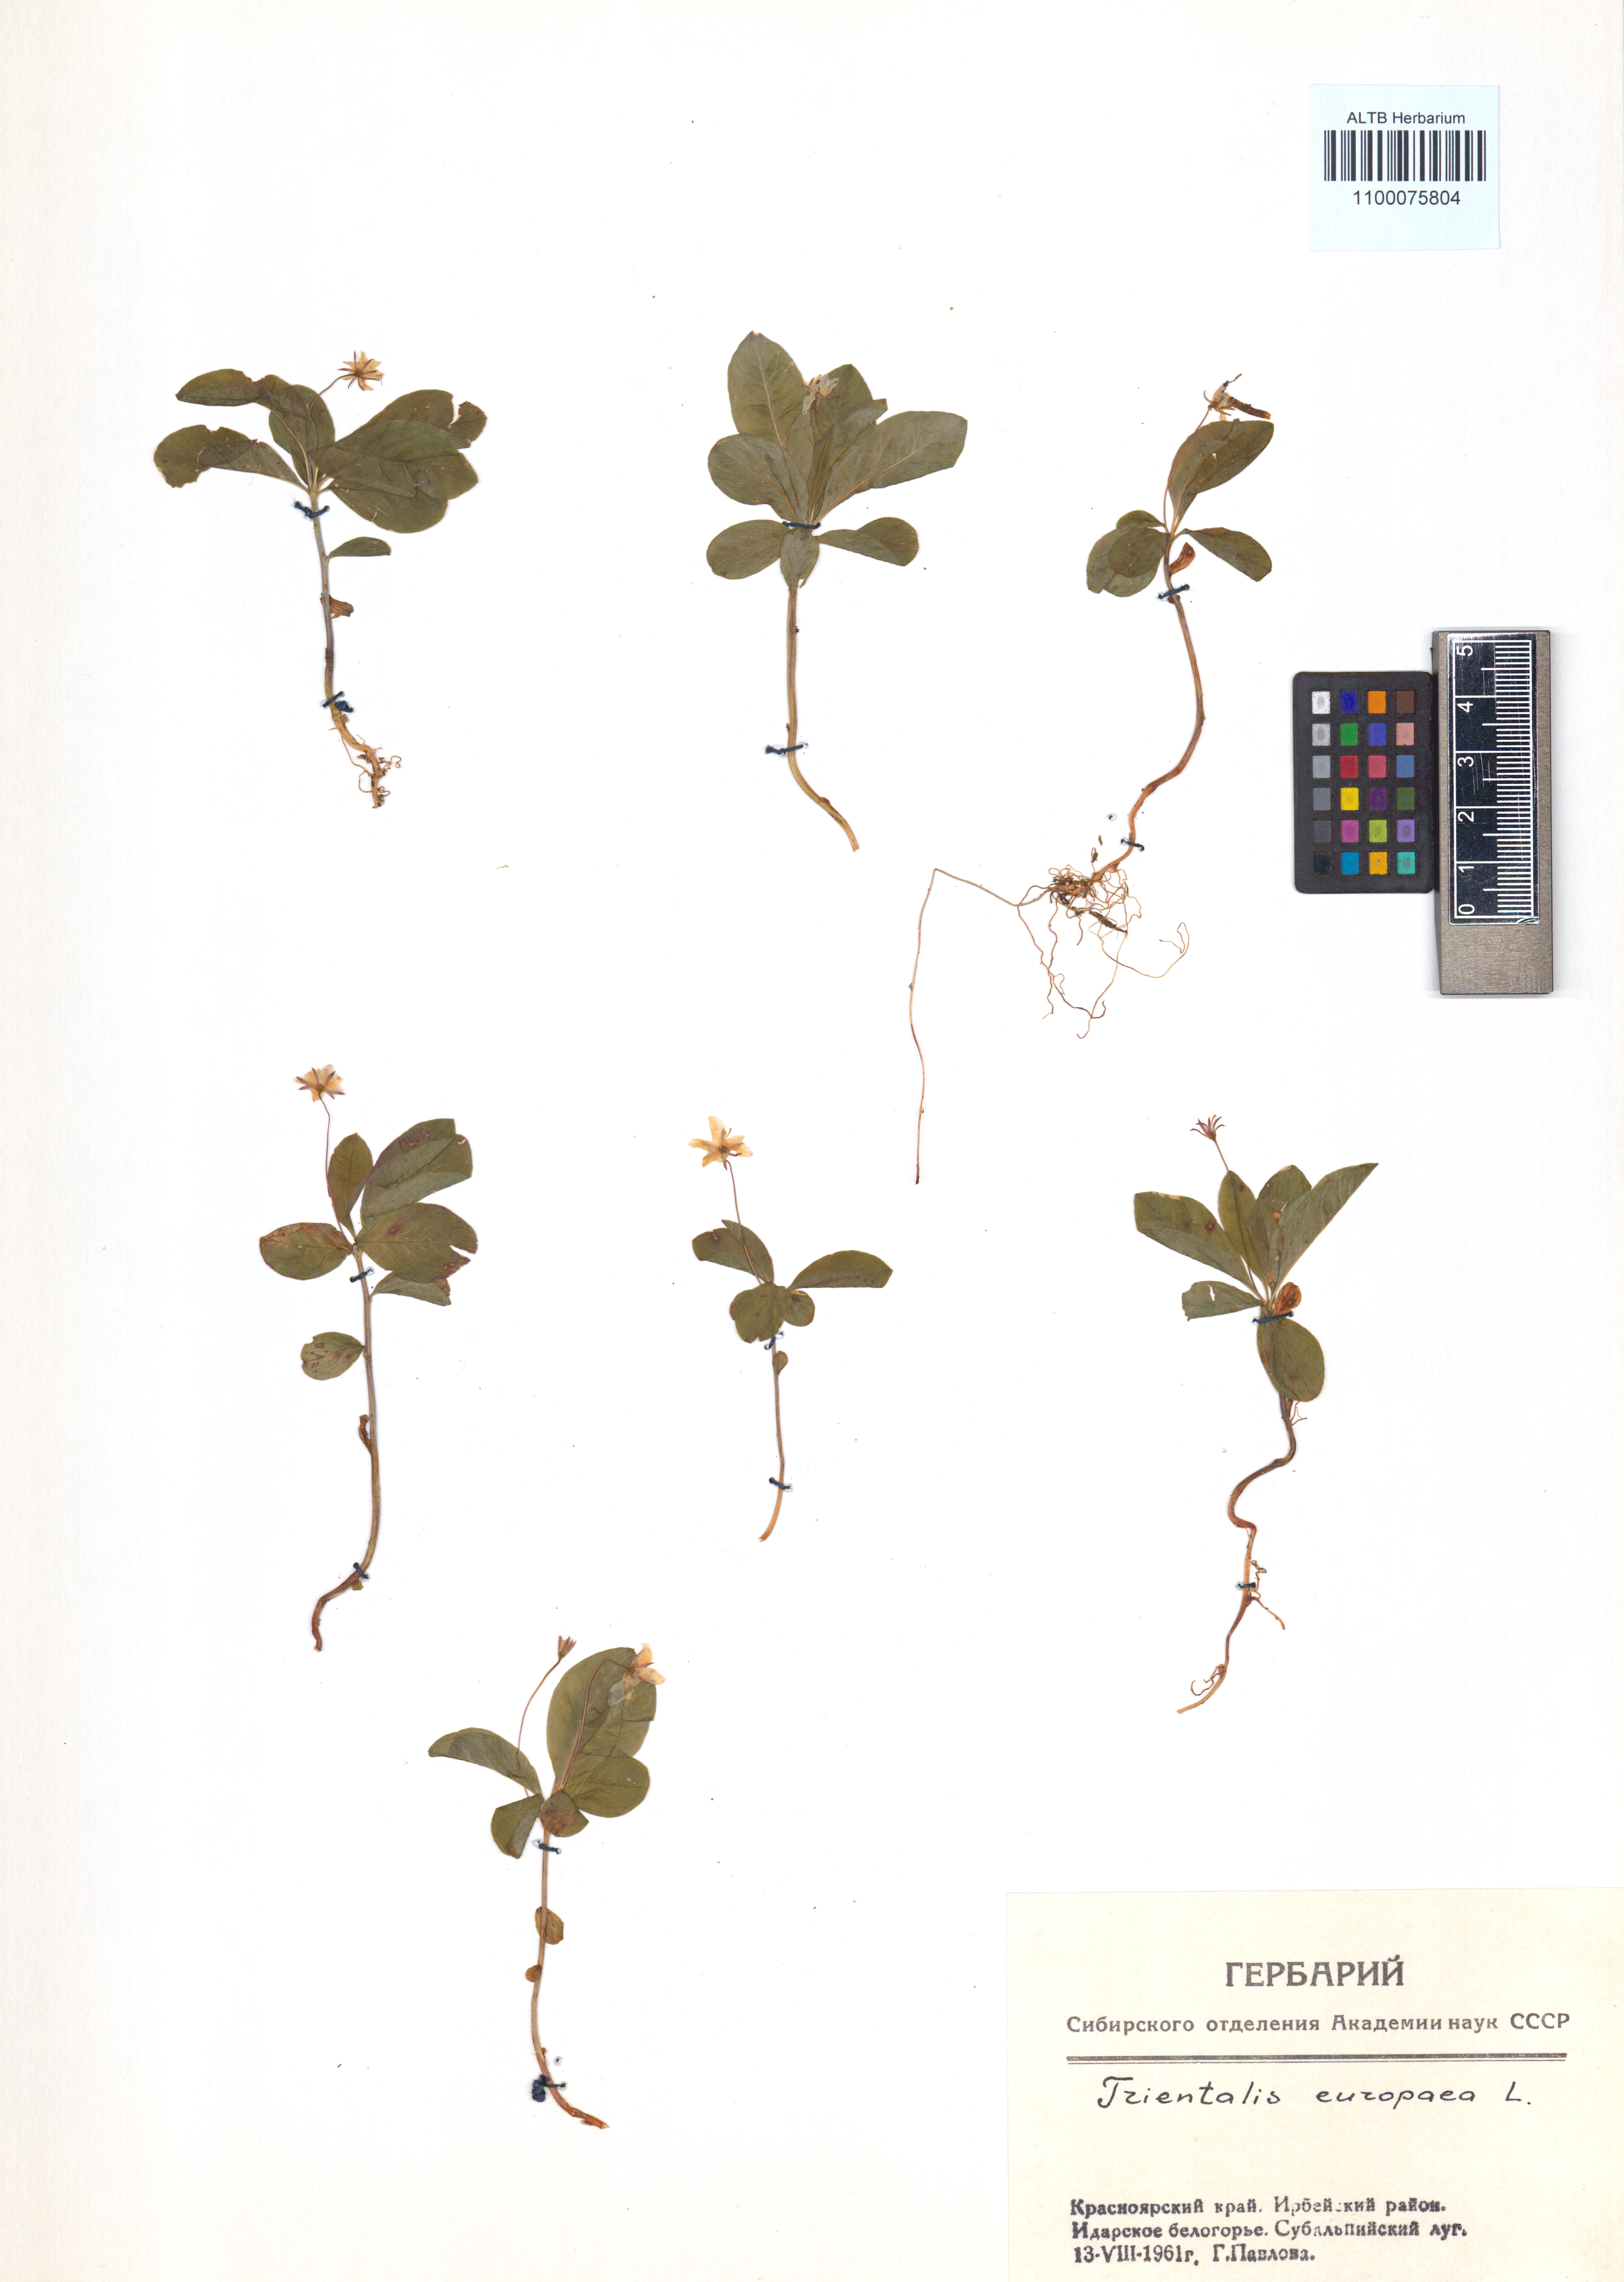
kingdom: Plantae
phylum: Tracheophyta
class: Magnoliopsida
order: Ericales
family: Primulaceae
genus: Lysimachia
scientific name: Lysimachia europaea
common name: Arctic starflower
